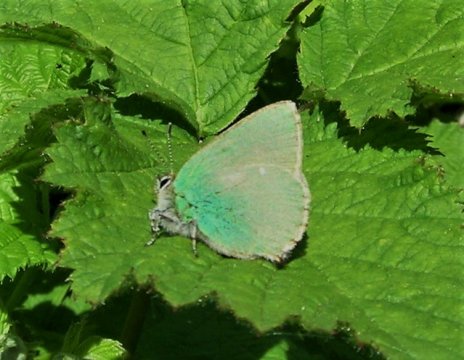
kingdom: Animalia
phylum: Arthropoda
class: Insecta
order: Lepidoptera
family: Lycaenidae
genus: Callophrys
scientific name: Callophrys rubi
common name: Green Hairstreak
